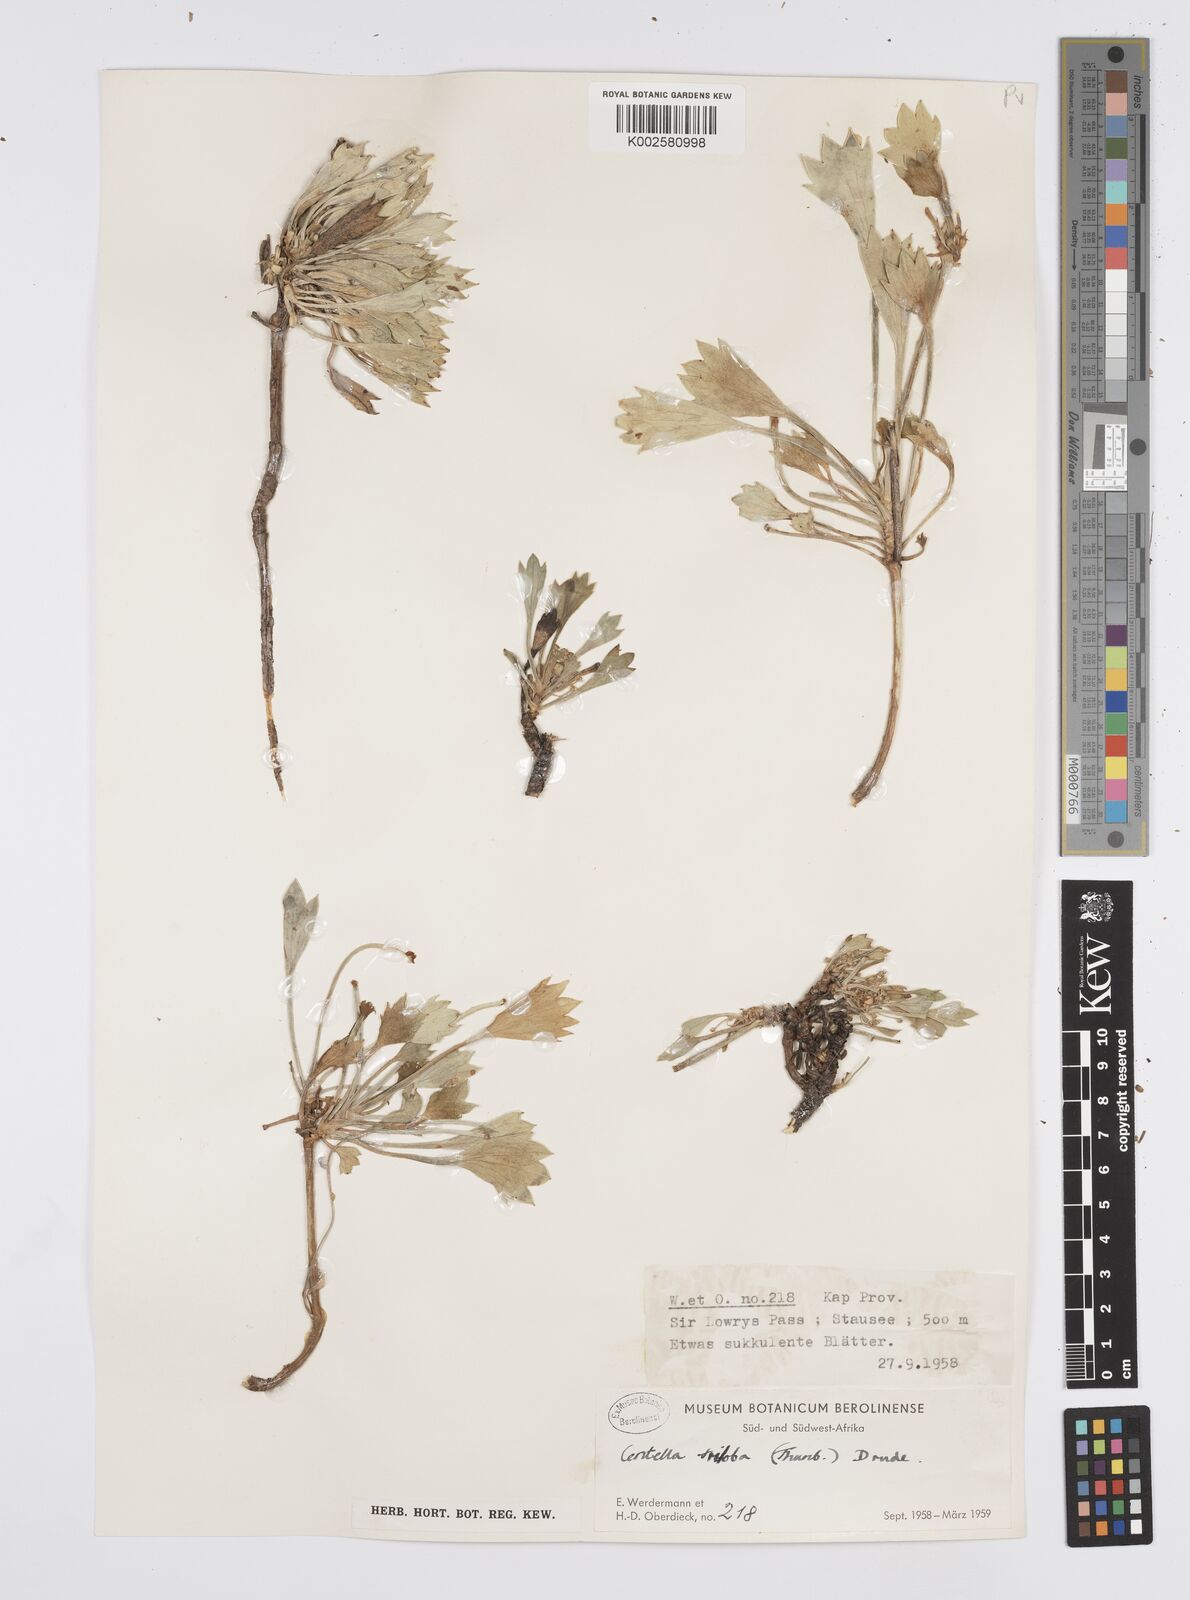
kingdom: Plantae
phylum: Tracheophyta
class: Magnoliopsida
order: Apiales
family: Apiaceae
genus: Centella
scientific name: Centella triloba
